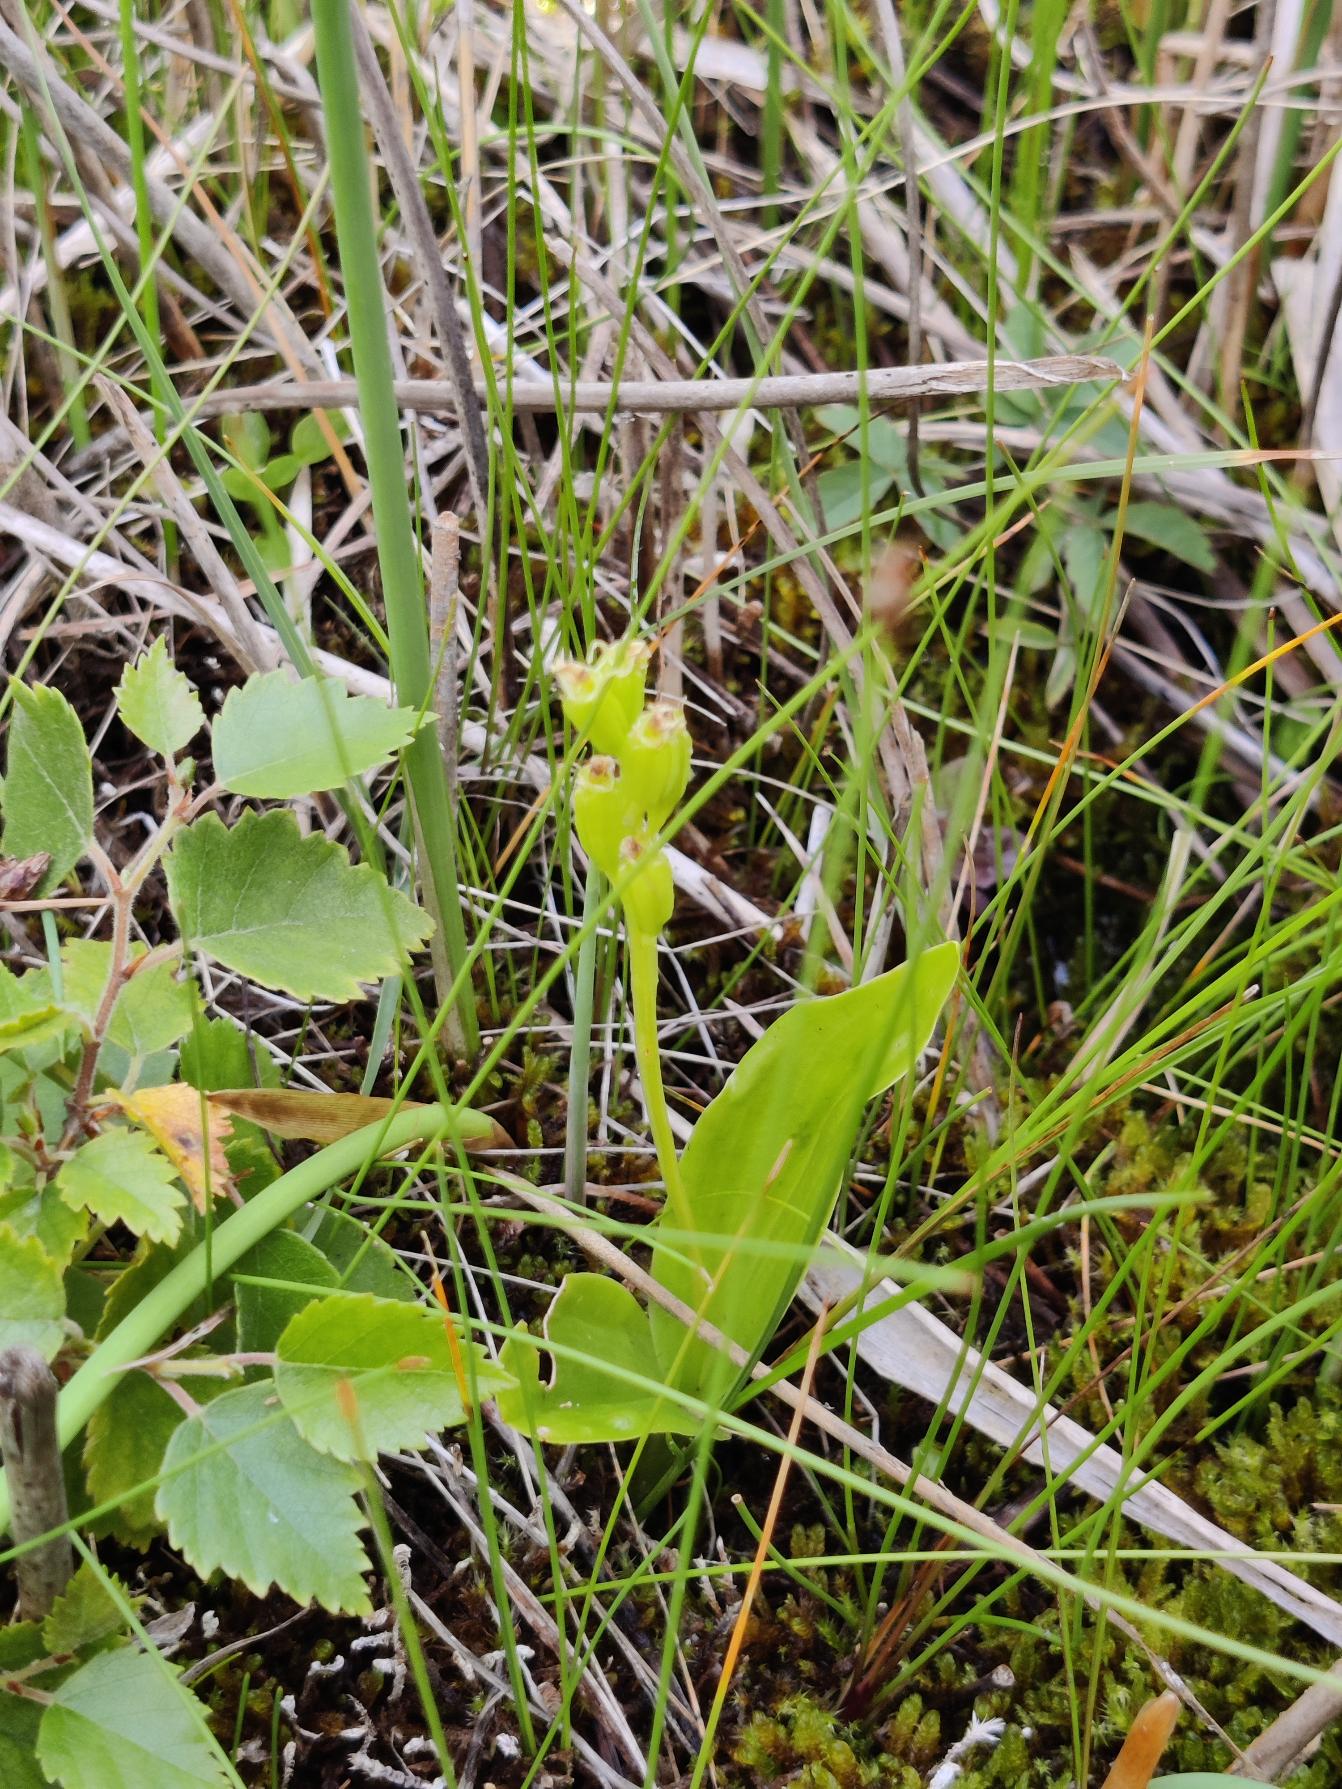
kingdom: Animalia
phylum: Arthropoda
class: Insecta
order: Coleoptera
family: Curculionidae
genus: Liparis
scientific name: Liparis loeselii
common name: Mygblomst
